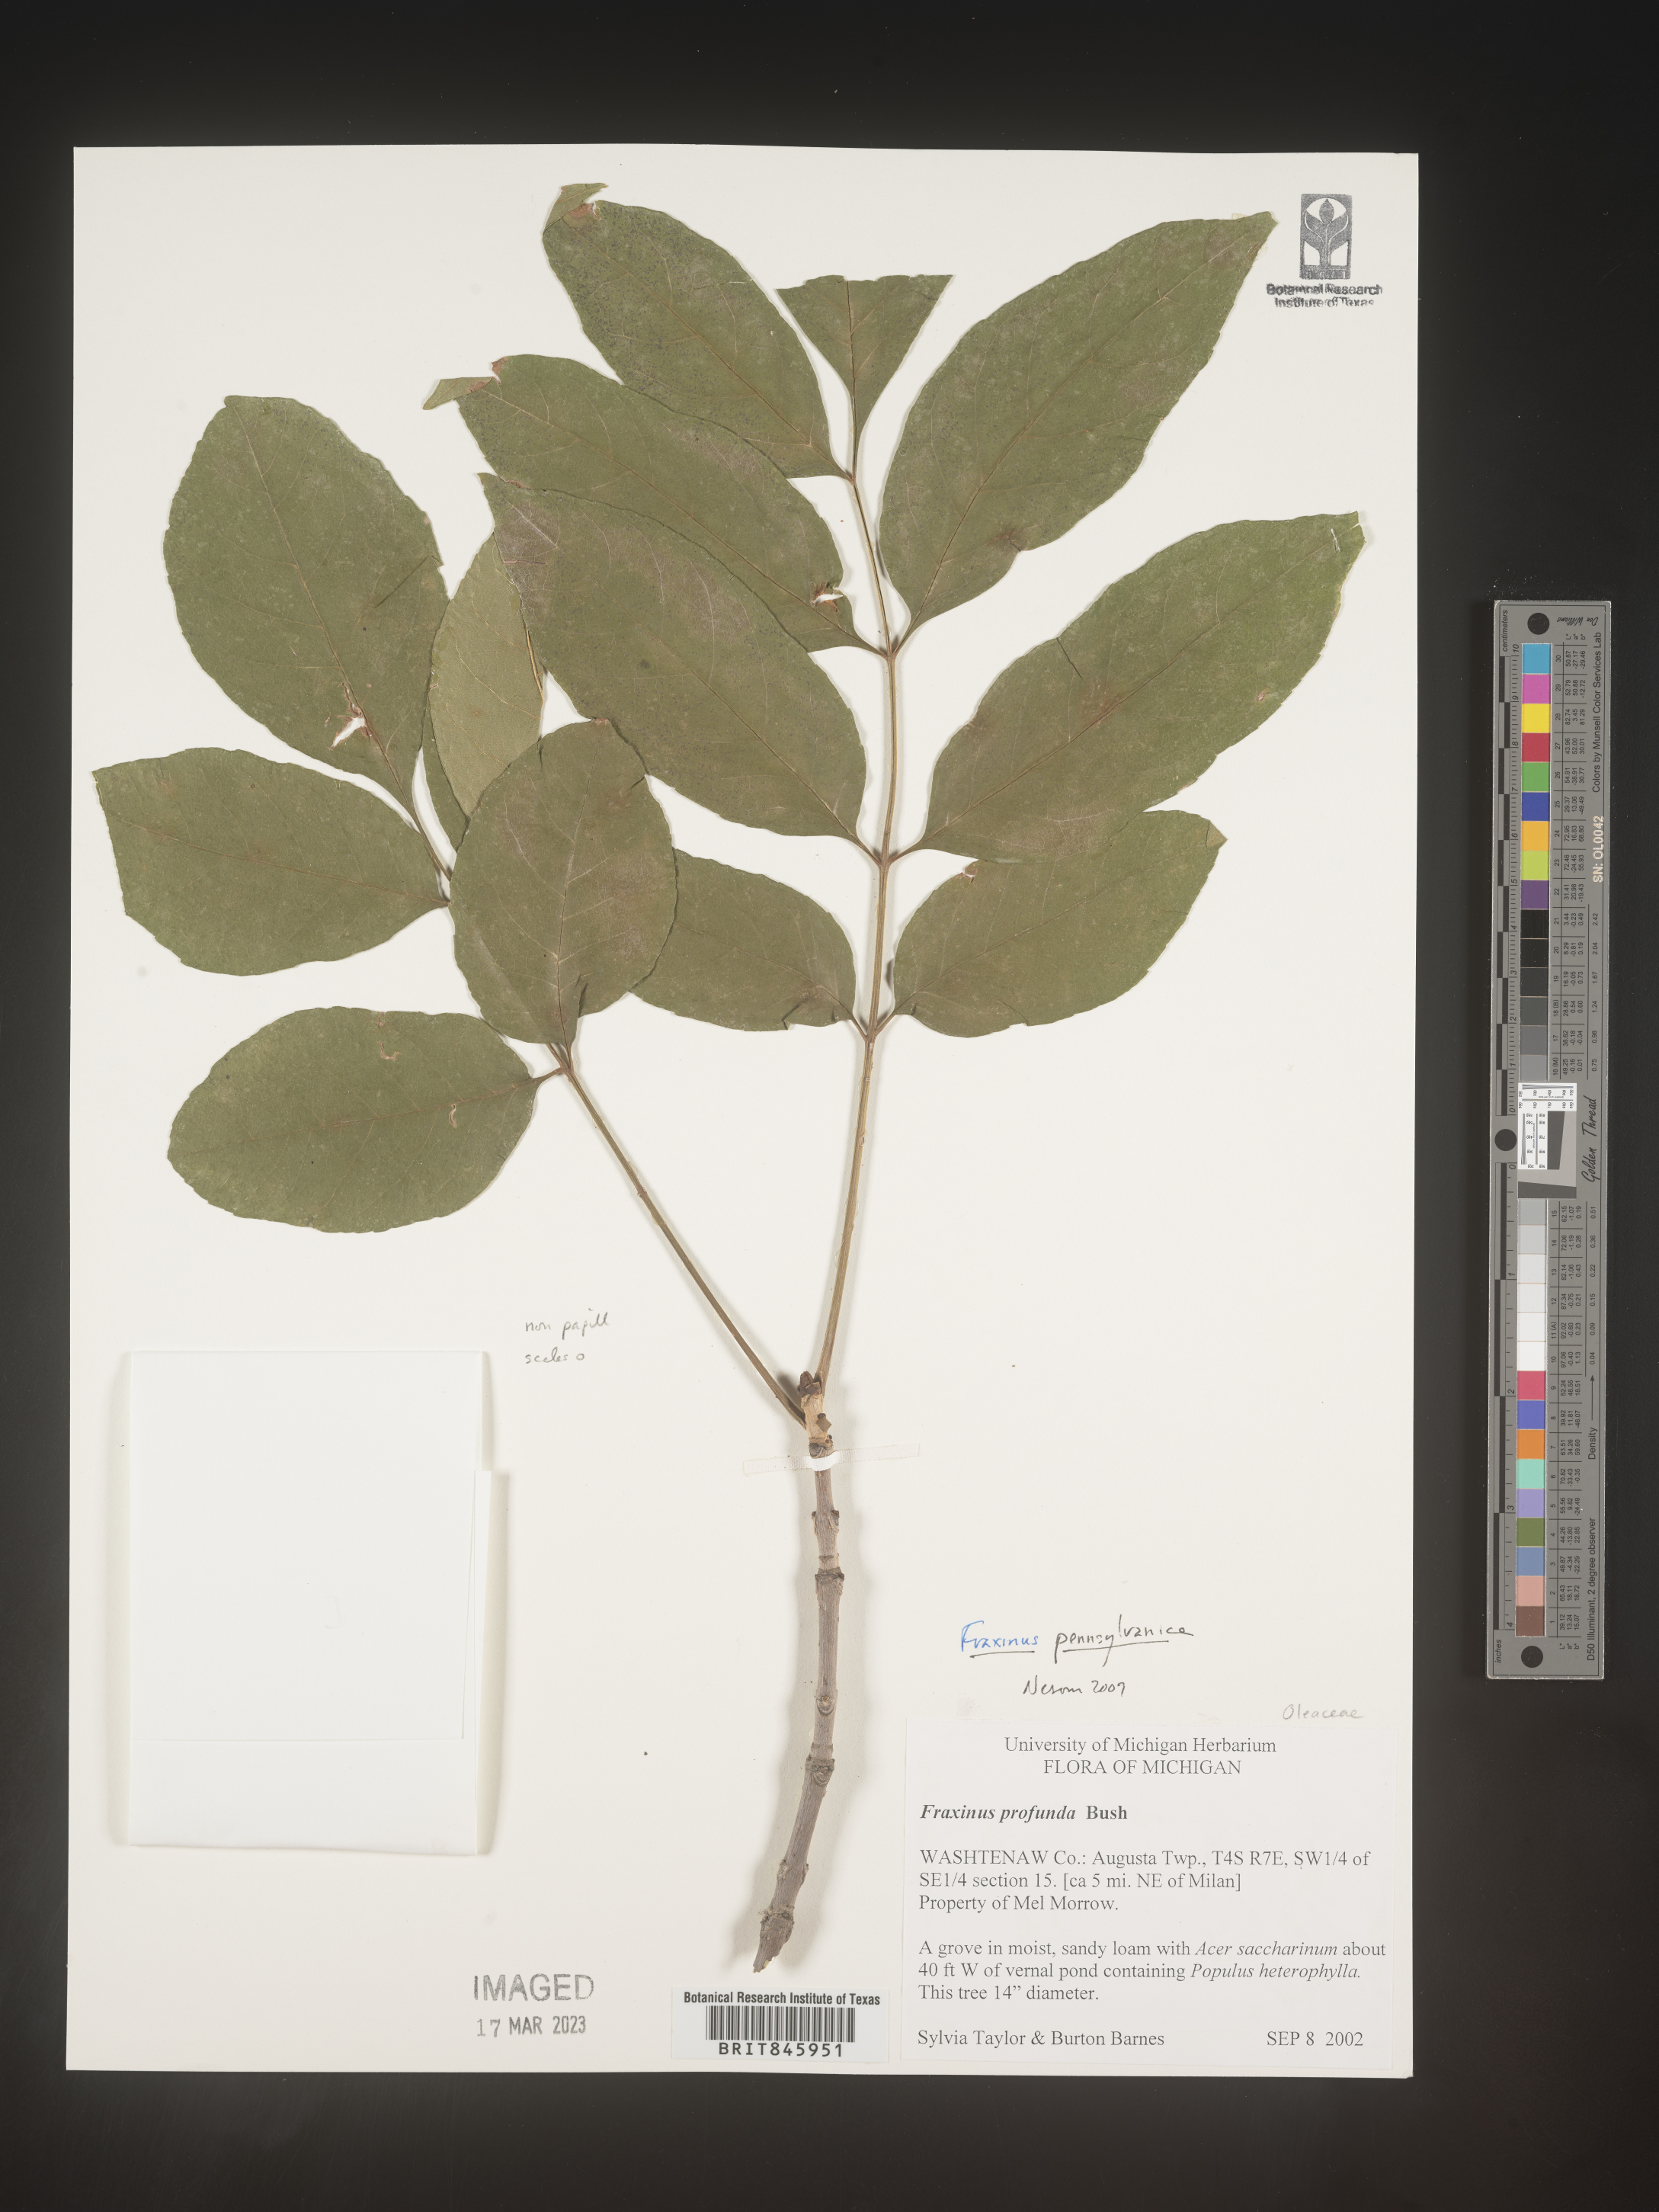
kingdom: Plantae
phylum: Tracheophyta
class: Magnoliopsida
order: Lamiales
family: Oleaceae
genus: Fraxinus
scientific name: Fraxinus
